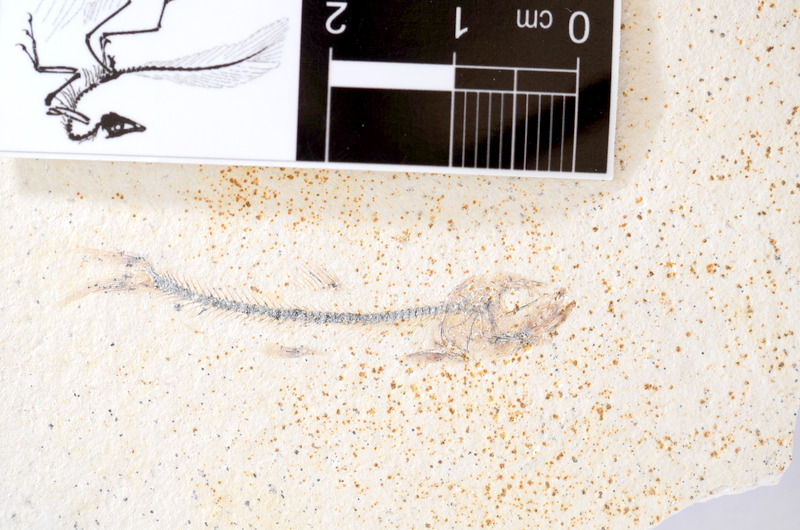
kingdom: Animalia
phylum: Chordata
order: Salmoniformes
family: Orthogonikleithridae
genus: Orthogonikleithrus
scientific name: Orthogonikleithrus hoelli
